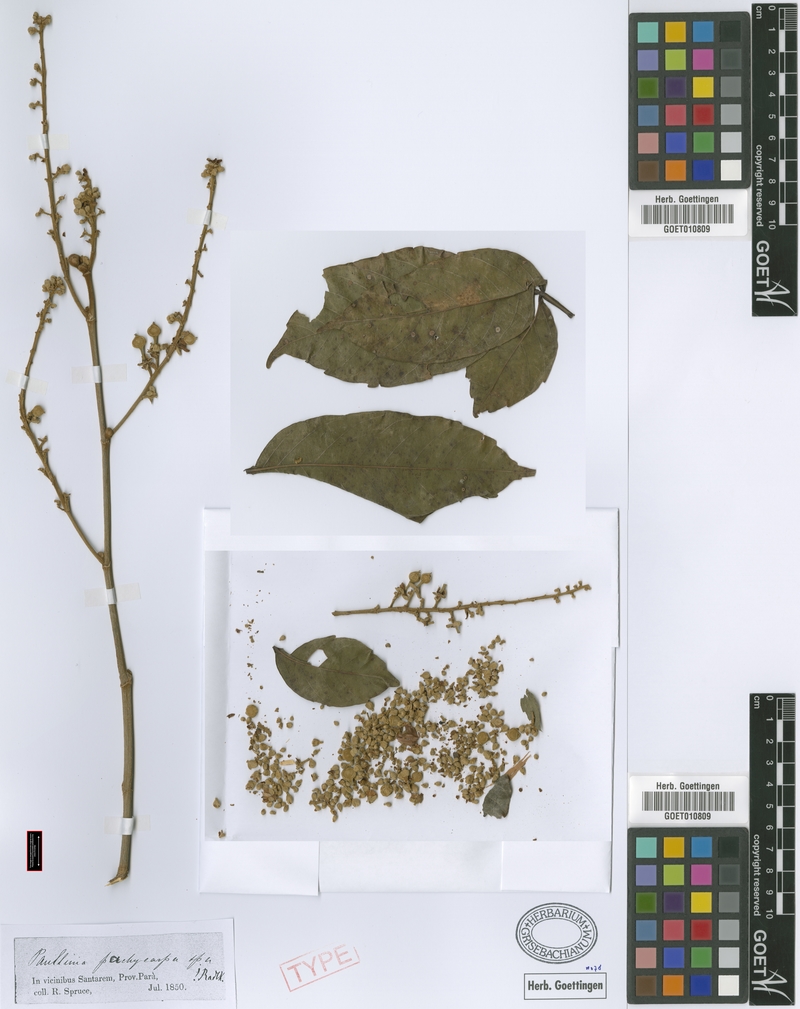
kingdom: Plantae
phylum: Tracheophyta
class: Magnoliopsida
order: Sapindales
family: Sapindaceae
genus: Paullinia
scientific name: Paullinia pachycarpa
